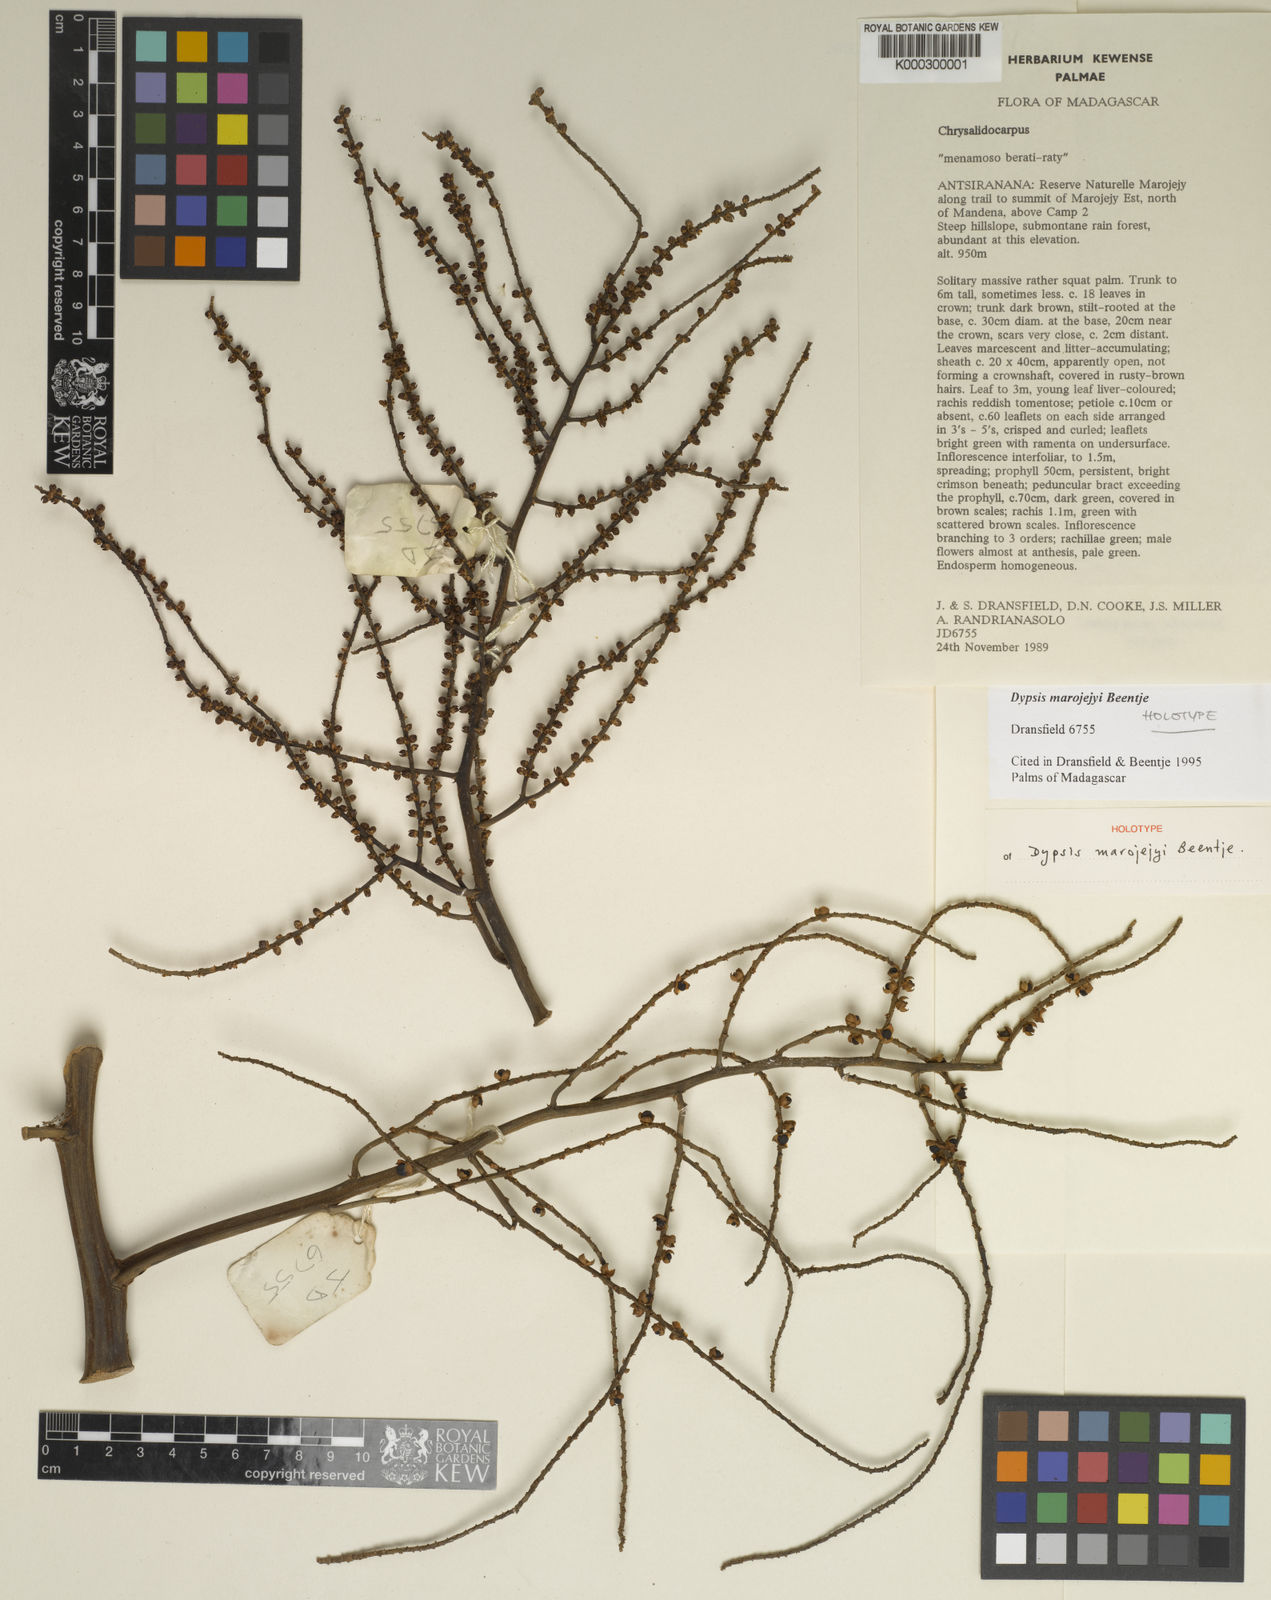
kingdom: Plantae
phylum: Tracheophyta
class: Liliopsida
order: Arecales
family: Arecaceae
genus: Dypsis
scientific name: Dypsis marojejyi
